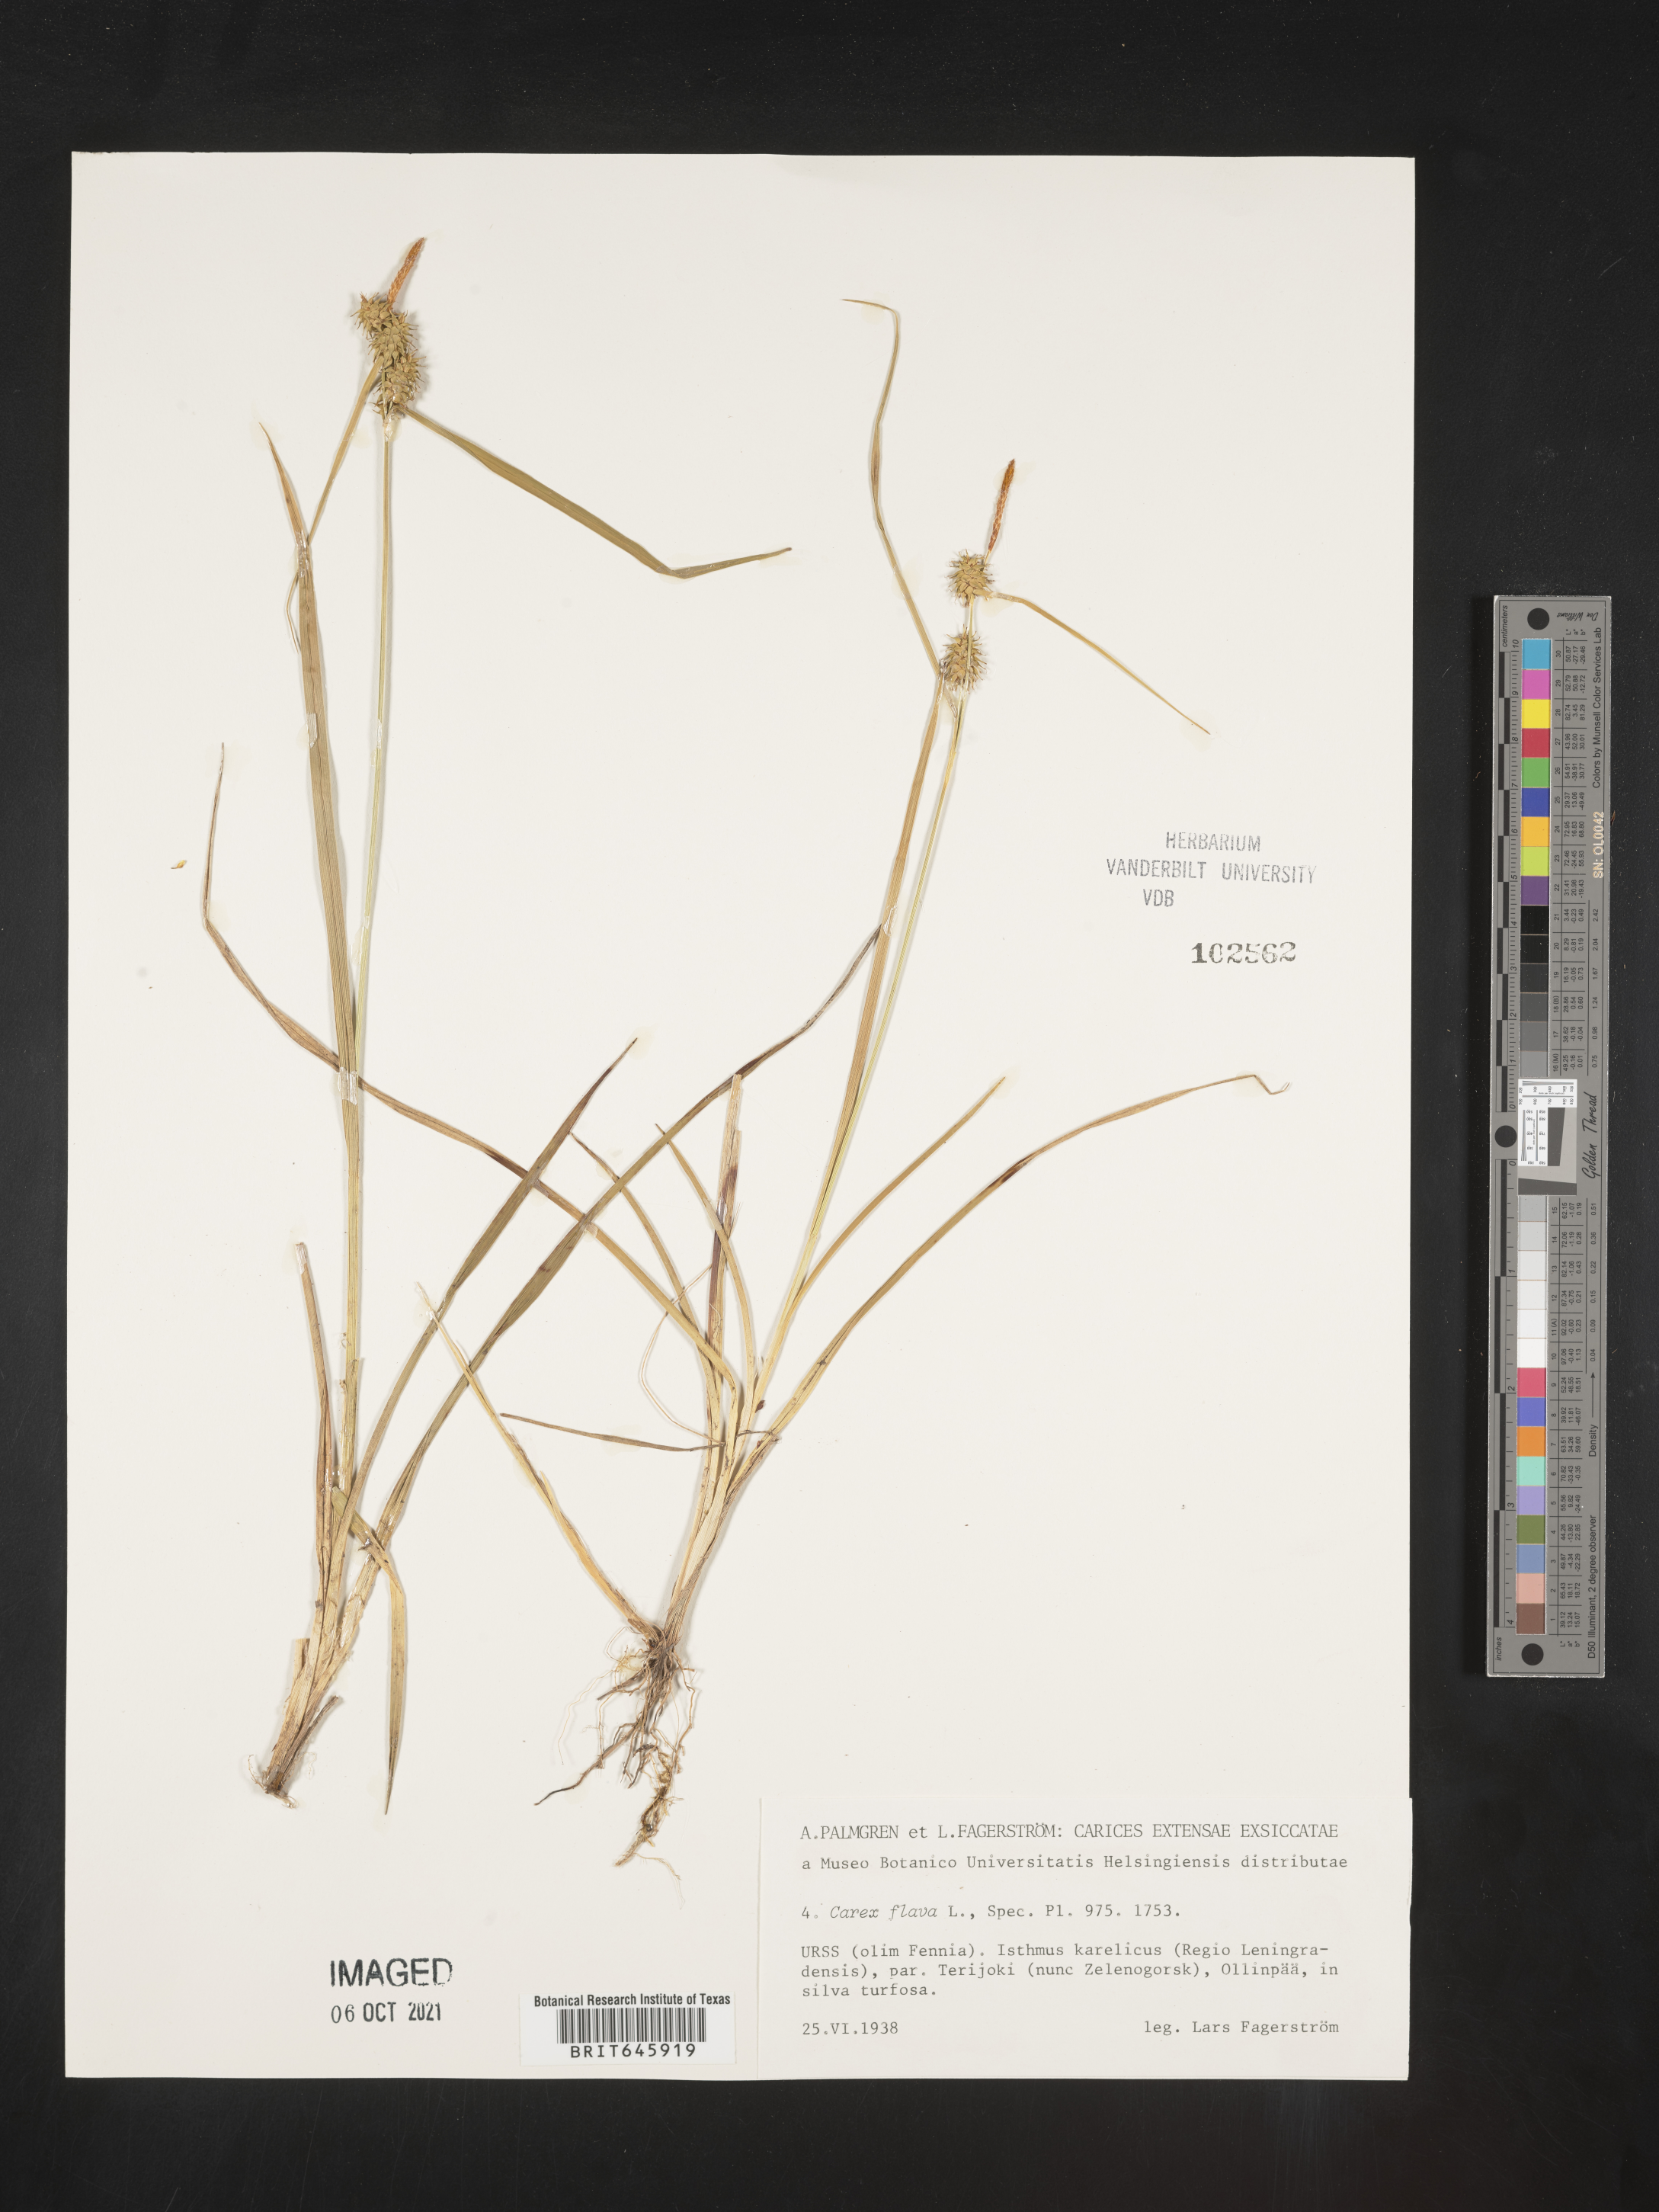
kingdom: Plantae
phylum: Tracheophyta
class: Liliopsida
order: Poales
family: Cyperaceae
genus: Carex
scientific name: Carex flava
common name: Large yellow-sedge
